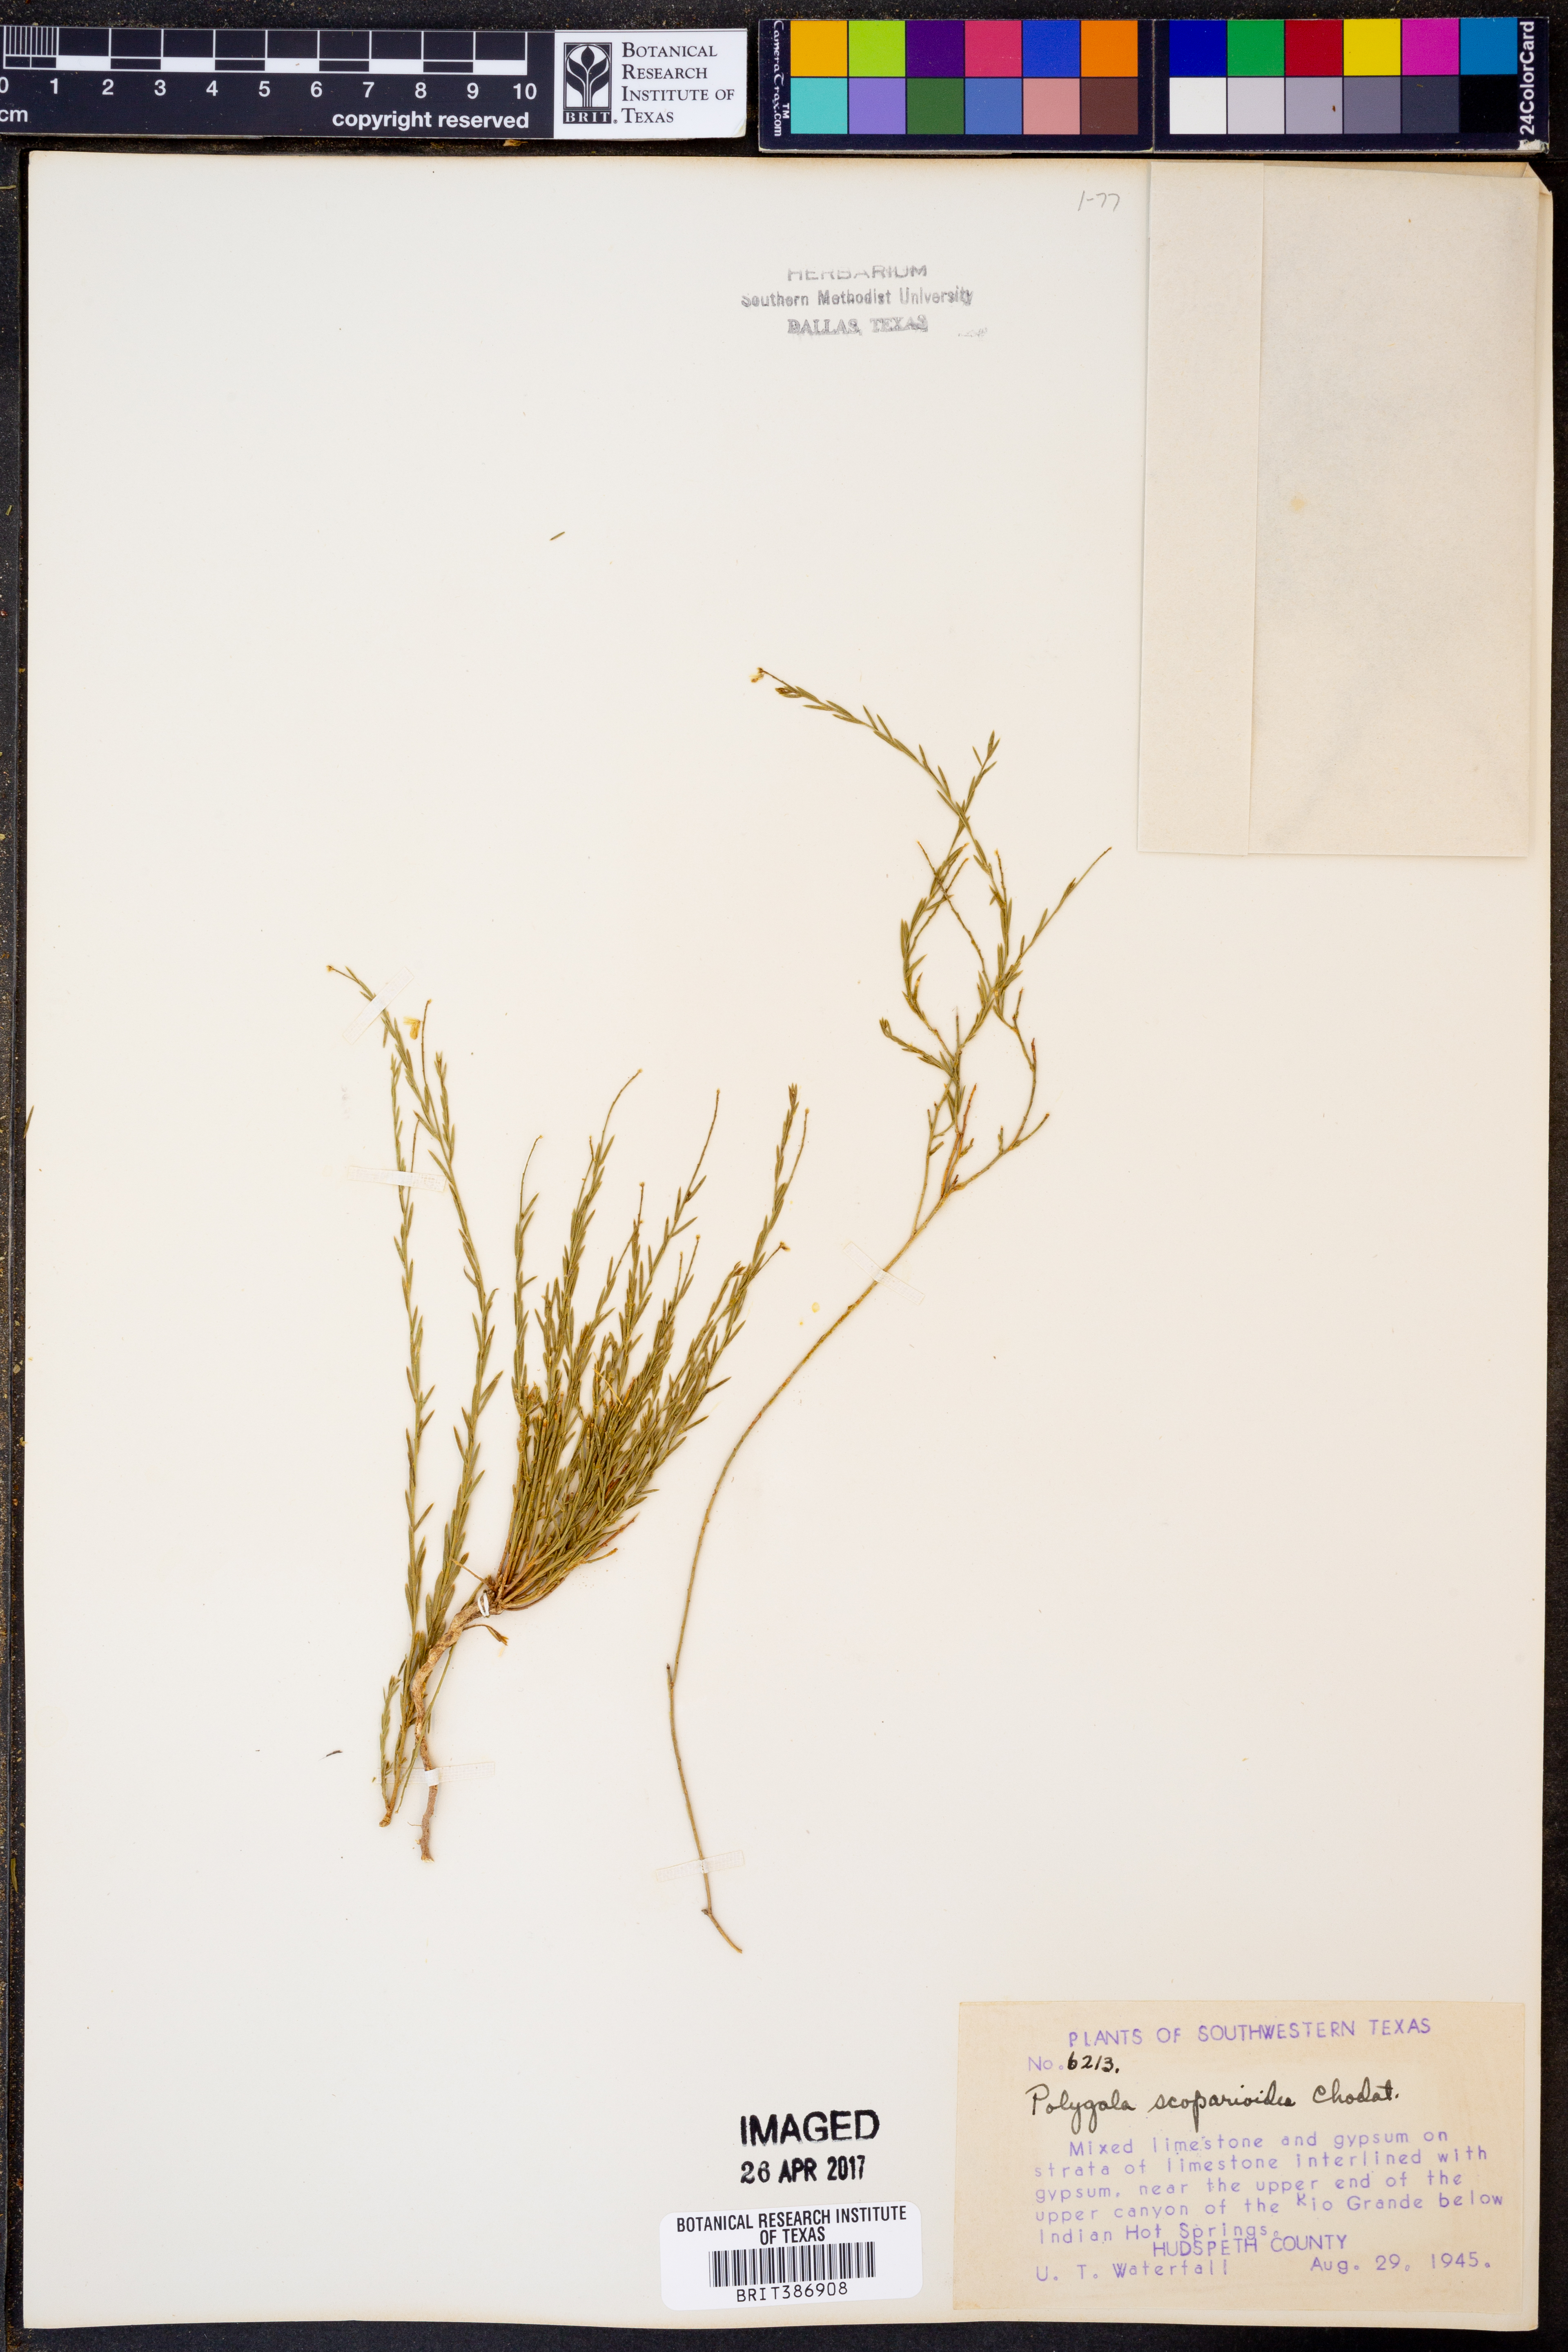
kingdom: Plantae
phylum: Tracheophyta
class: Magnoliopsida
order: Fabales
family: Polygalaceae
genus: Polygala
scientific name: Polygala scoparioides
